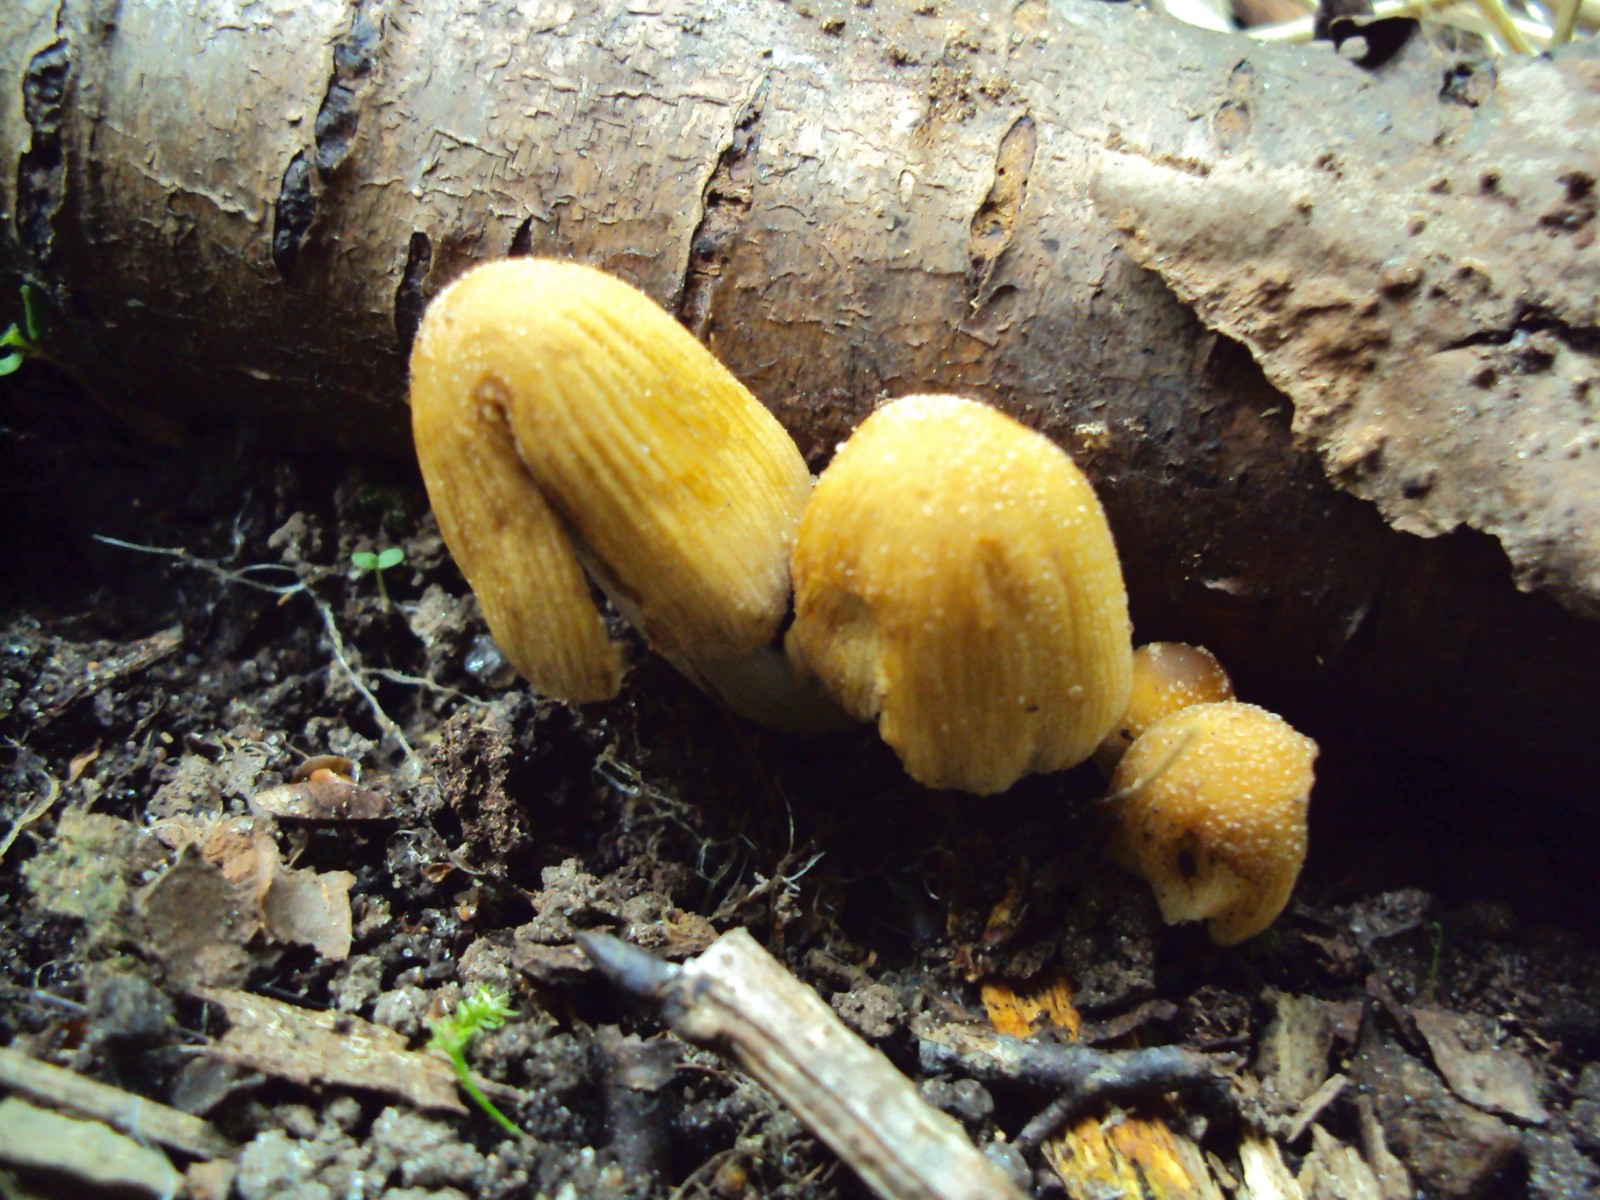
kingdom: Fungi
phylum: Basidiomycota
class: Agaricomycetes
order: Agaricales
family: Psathyrellaceae
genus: Coprinellus
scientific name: Coprinellus micaceus
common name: glimmer-blækhat
